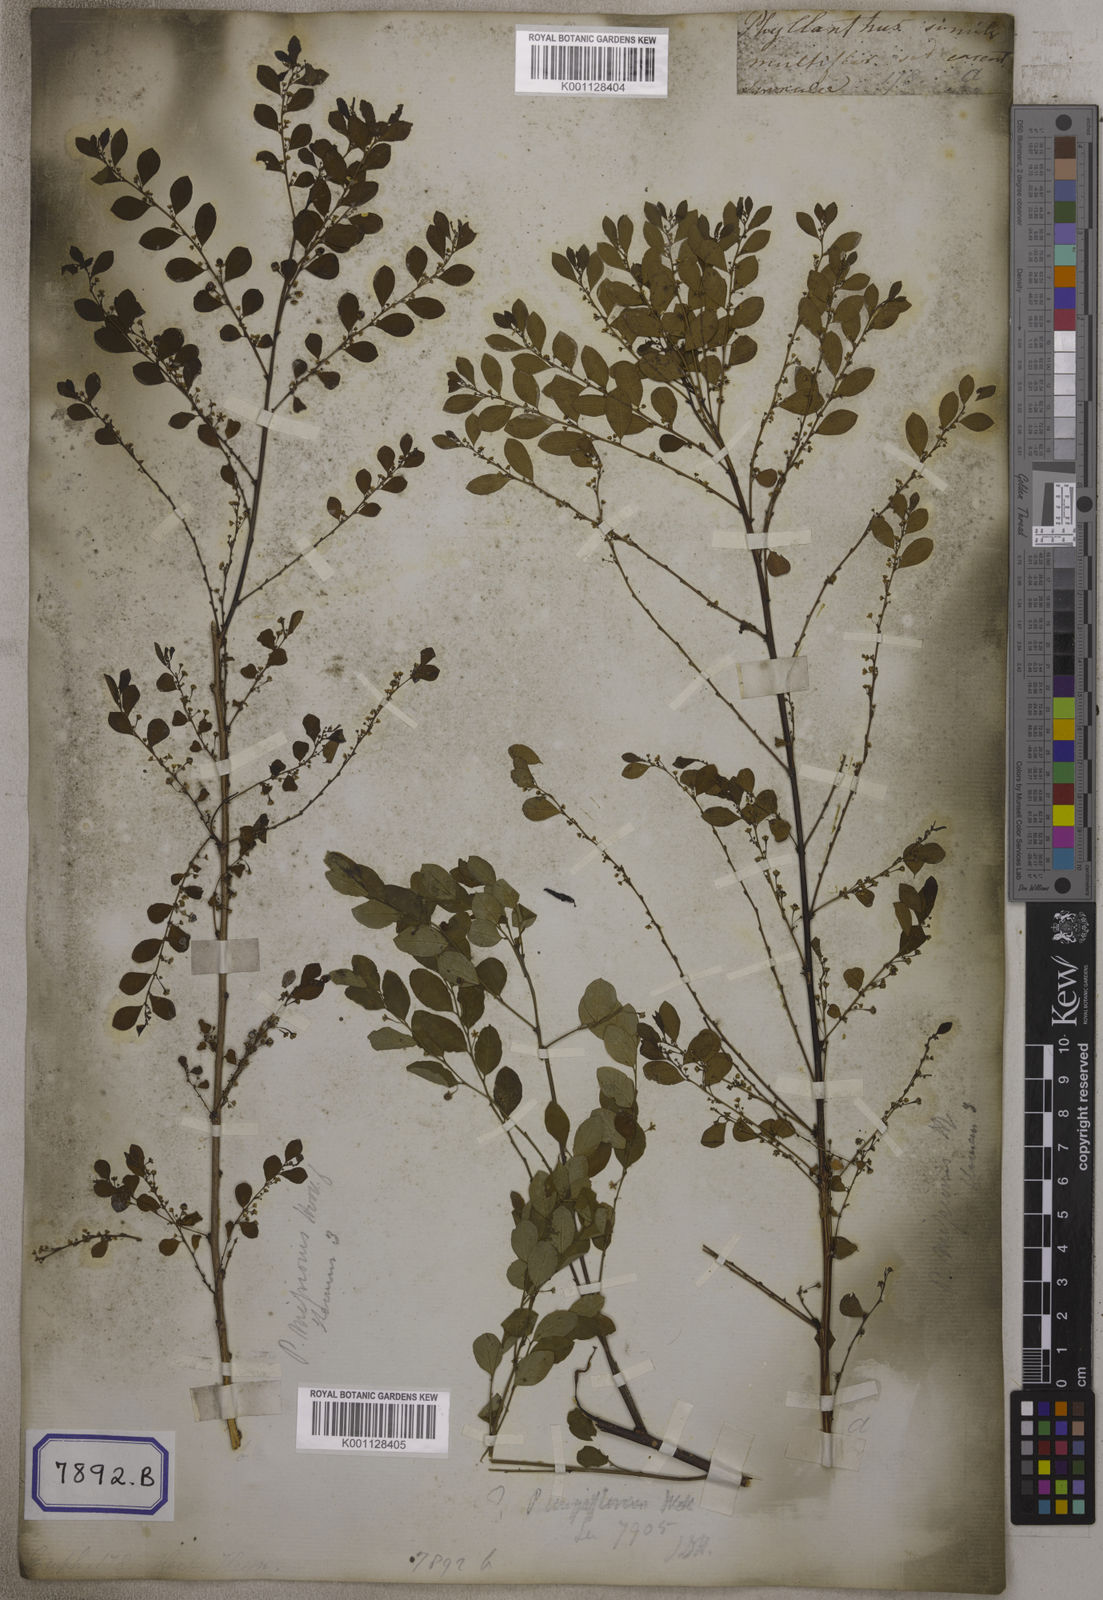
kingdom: Plantae
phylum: Tracheophyta
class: Magnoliopsida
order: Malpighiales
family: Euphorbiaceae
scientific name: Euphorbiaceae
